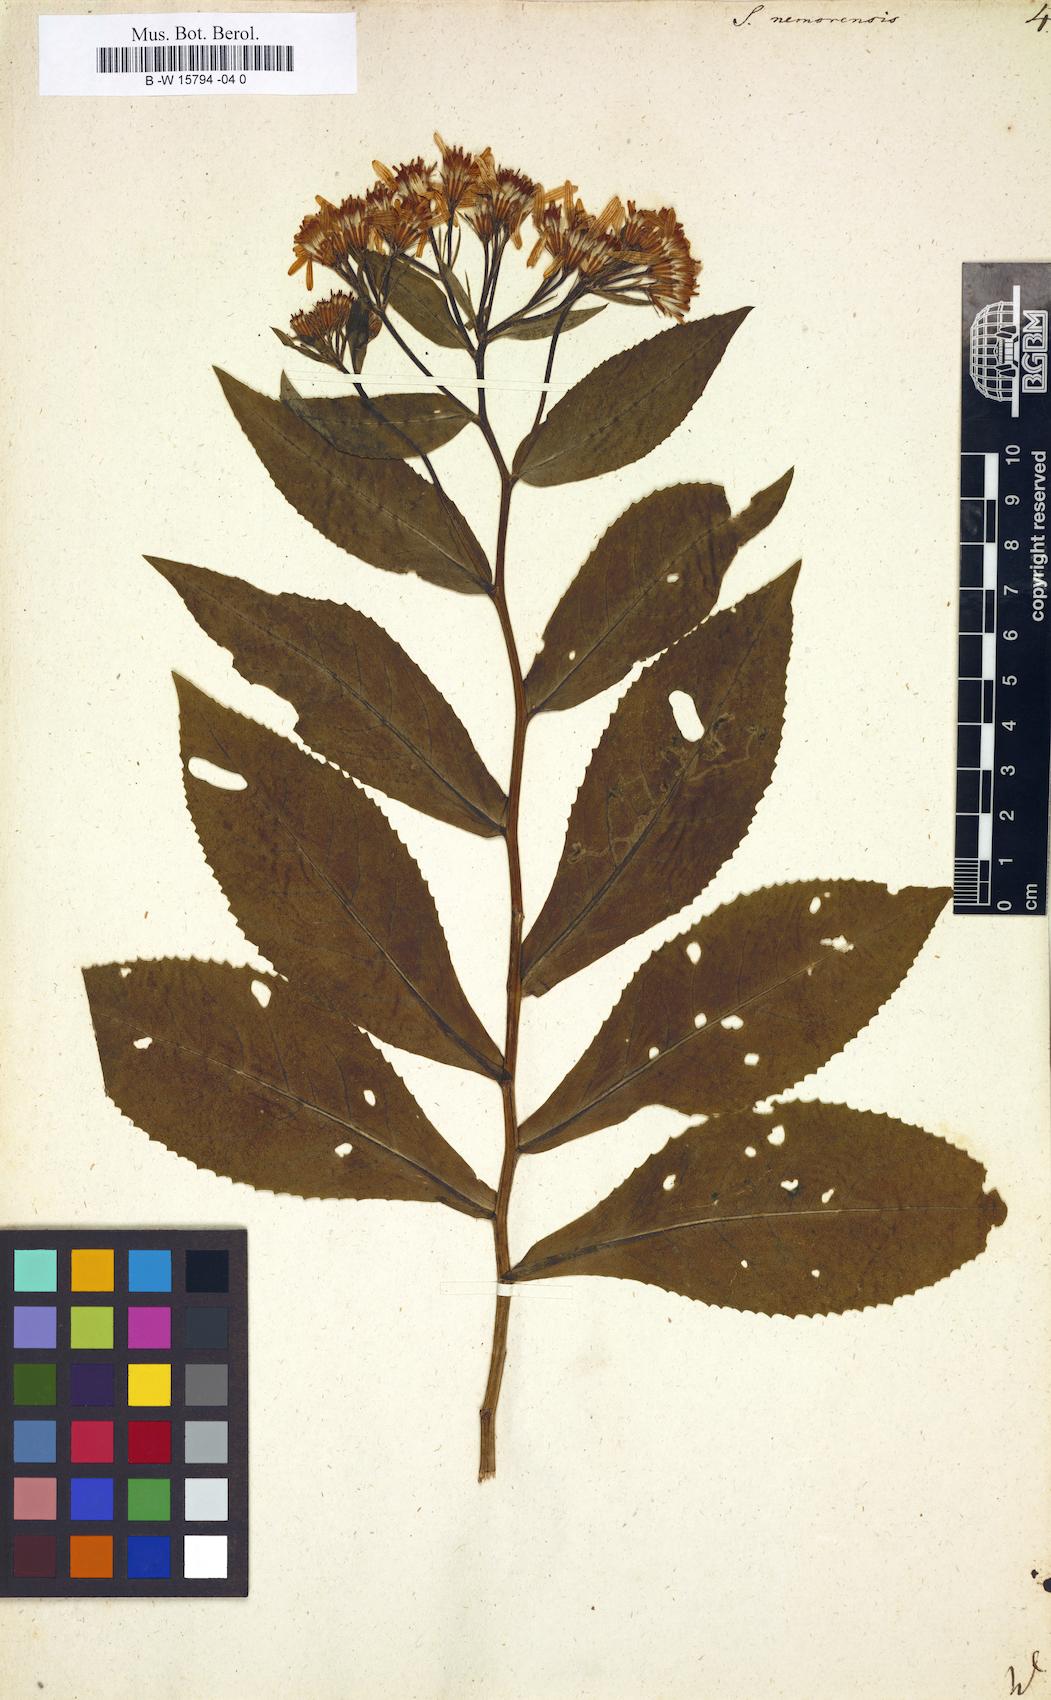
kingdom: Plantae
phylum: Tracheophyta
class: Magnoliopsida
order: Asterales
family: Asteraceae
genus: Senecio
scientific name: Senecio nemorensis
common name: Alpine ragwort
